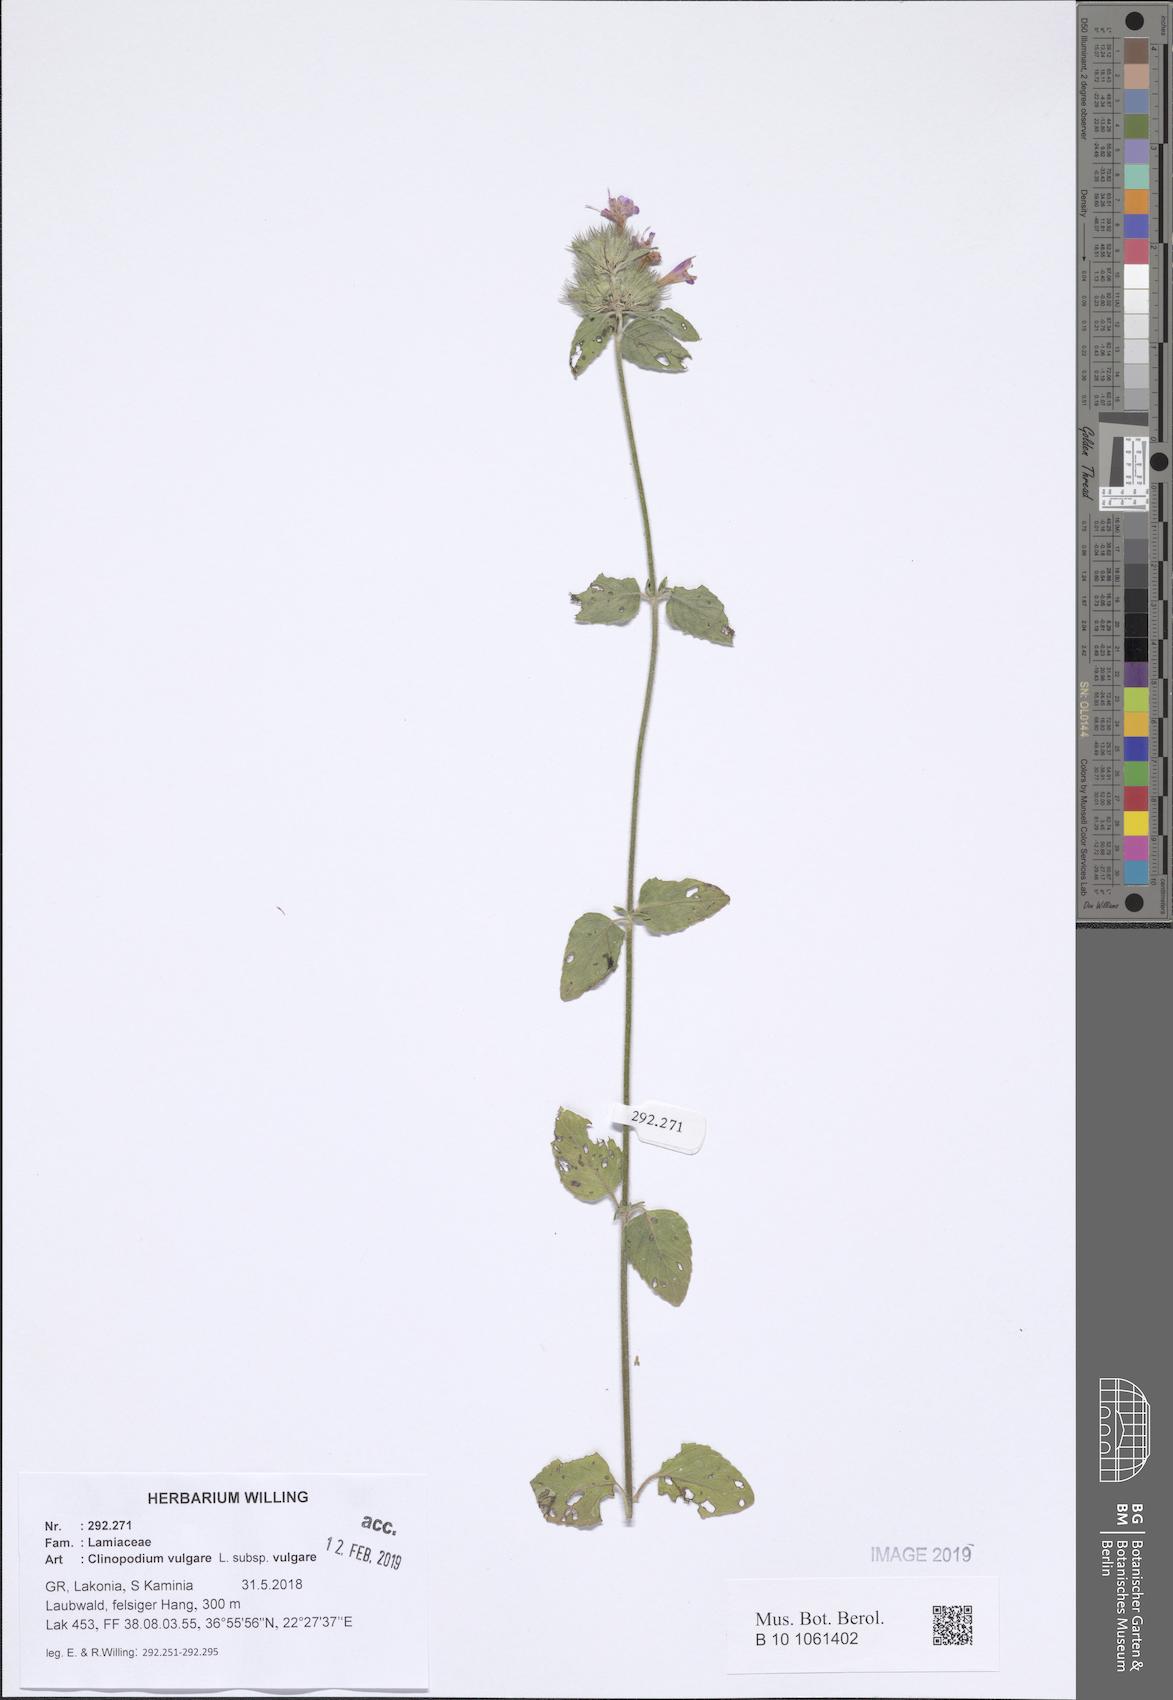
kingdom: Plantae
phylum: Tracheophyta
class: Magnoliopsida
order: Lamiales
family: Lamiaceae
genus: Clinopodium
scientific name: Clinopodium vulgare
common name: Wild basil
